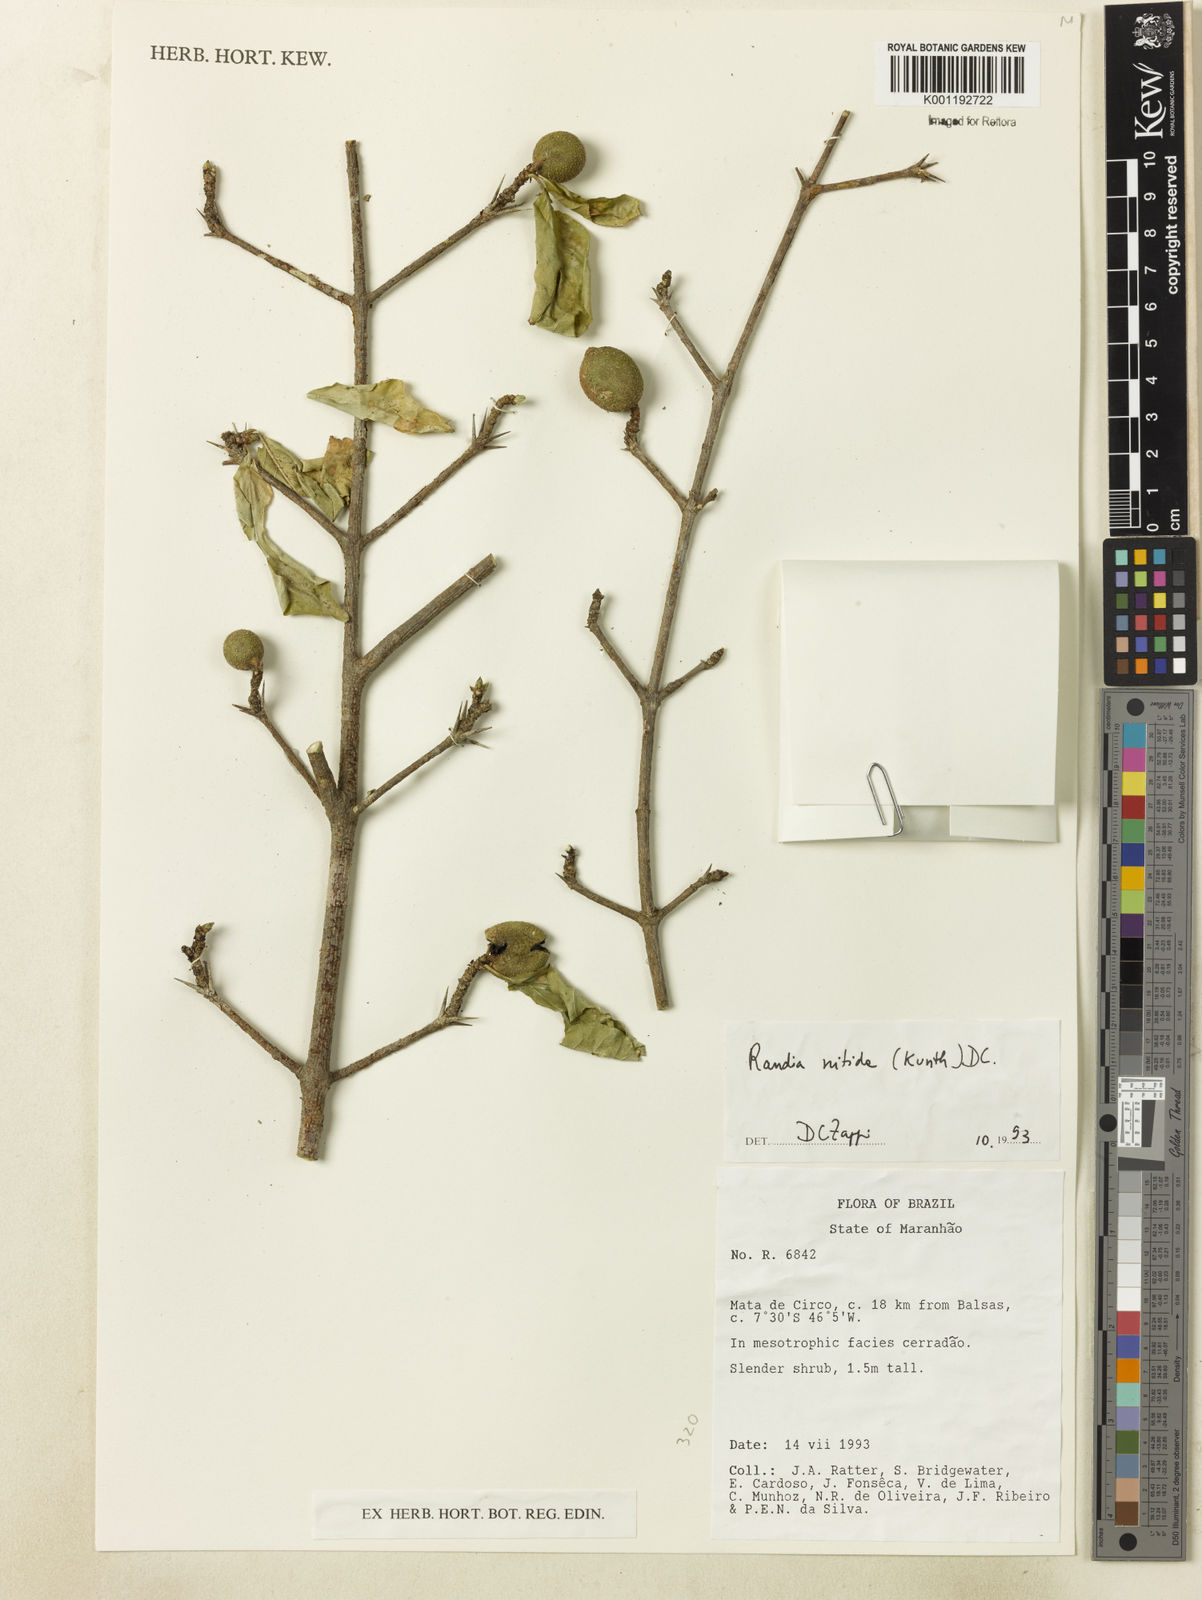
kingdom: Plantae
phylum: Tracheophyta
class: Magnoliopsida
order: Gentianales
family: Rubiaceae
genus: Randia
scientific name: Randia nitida
